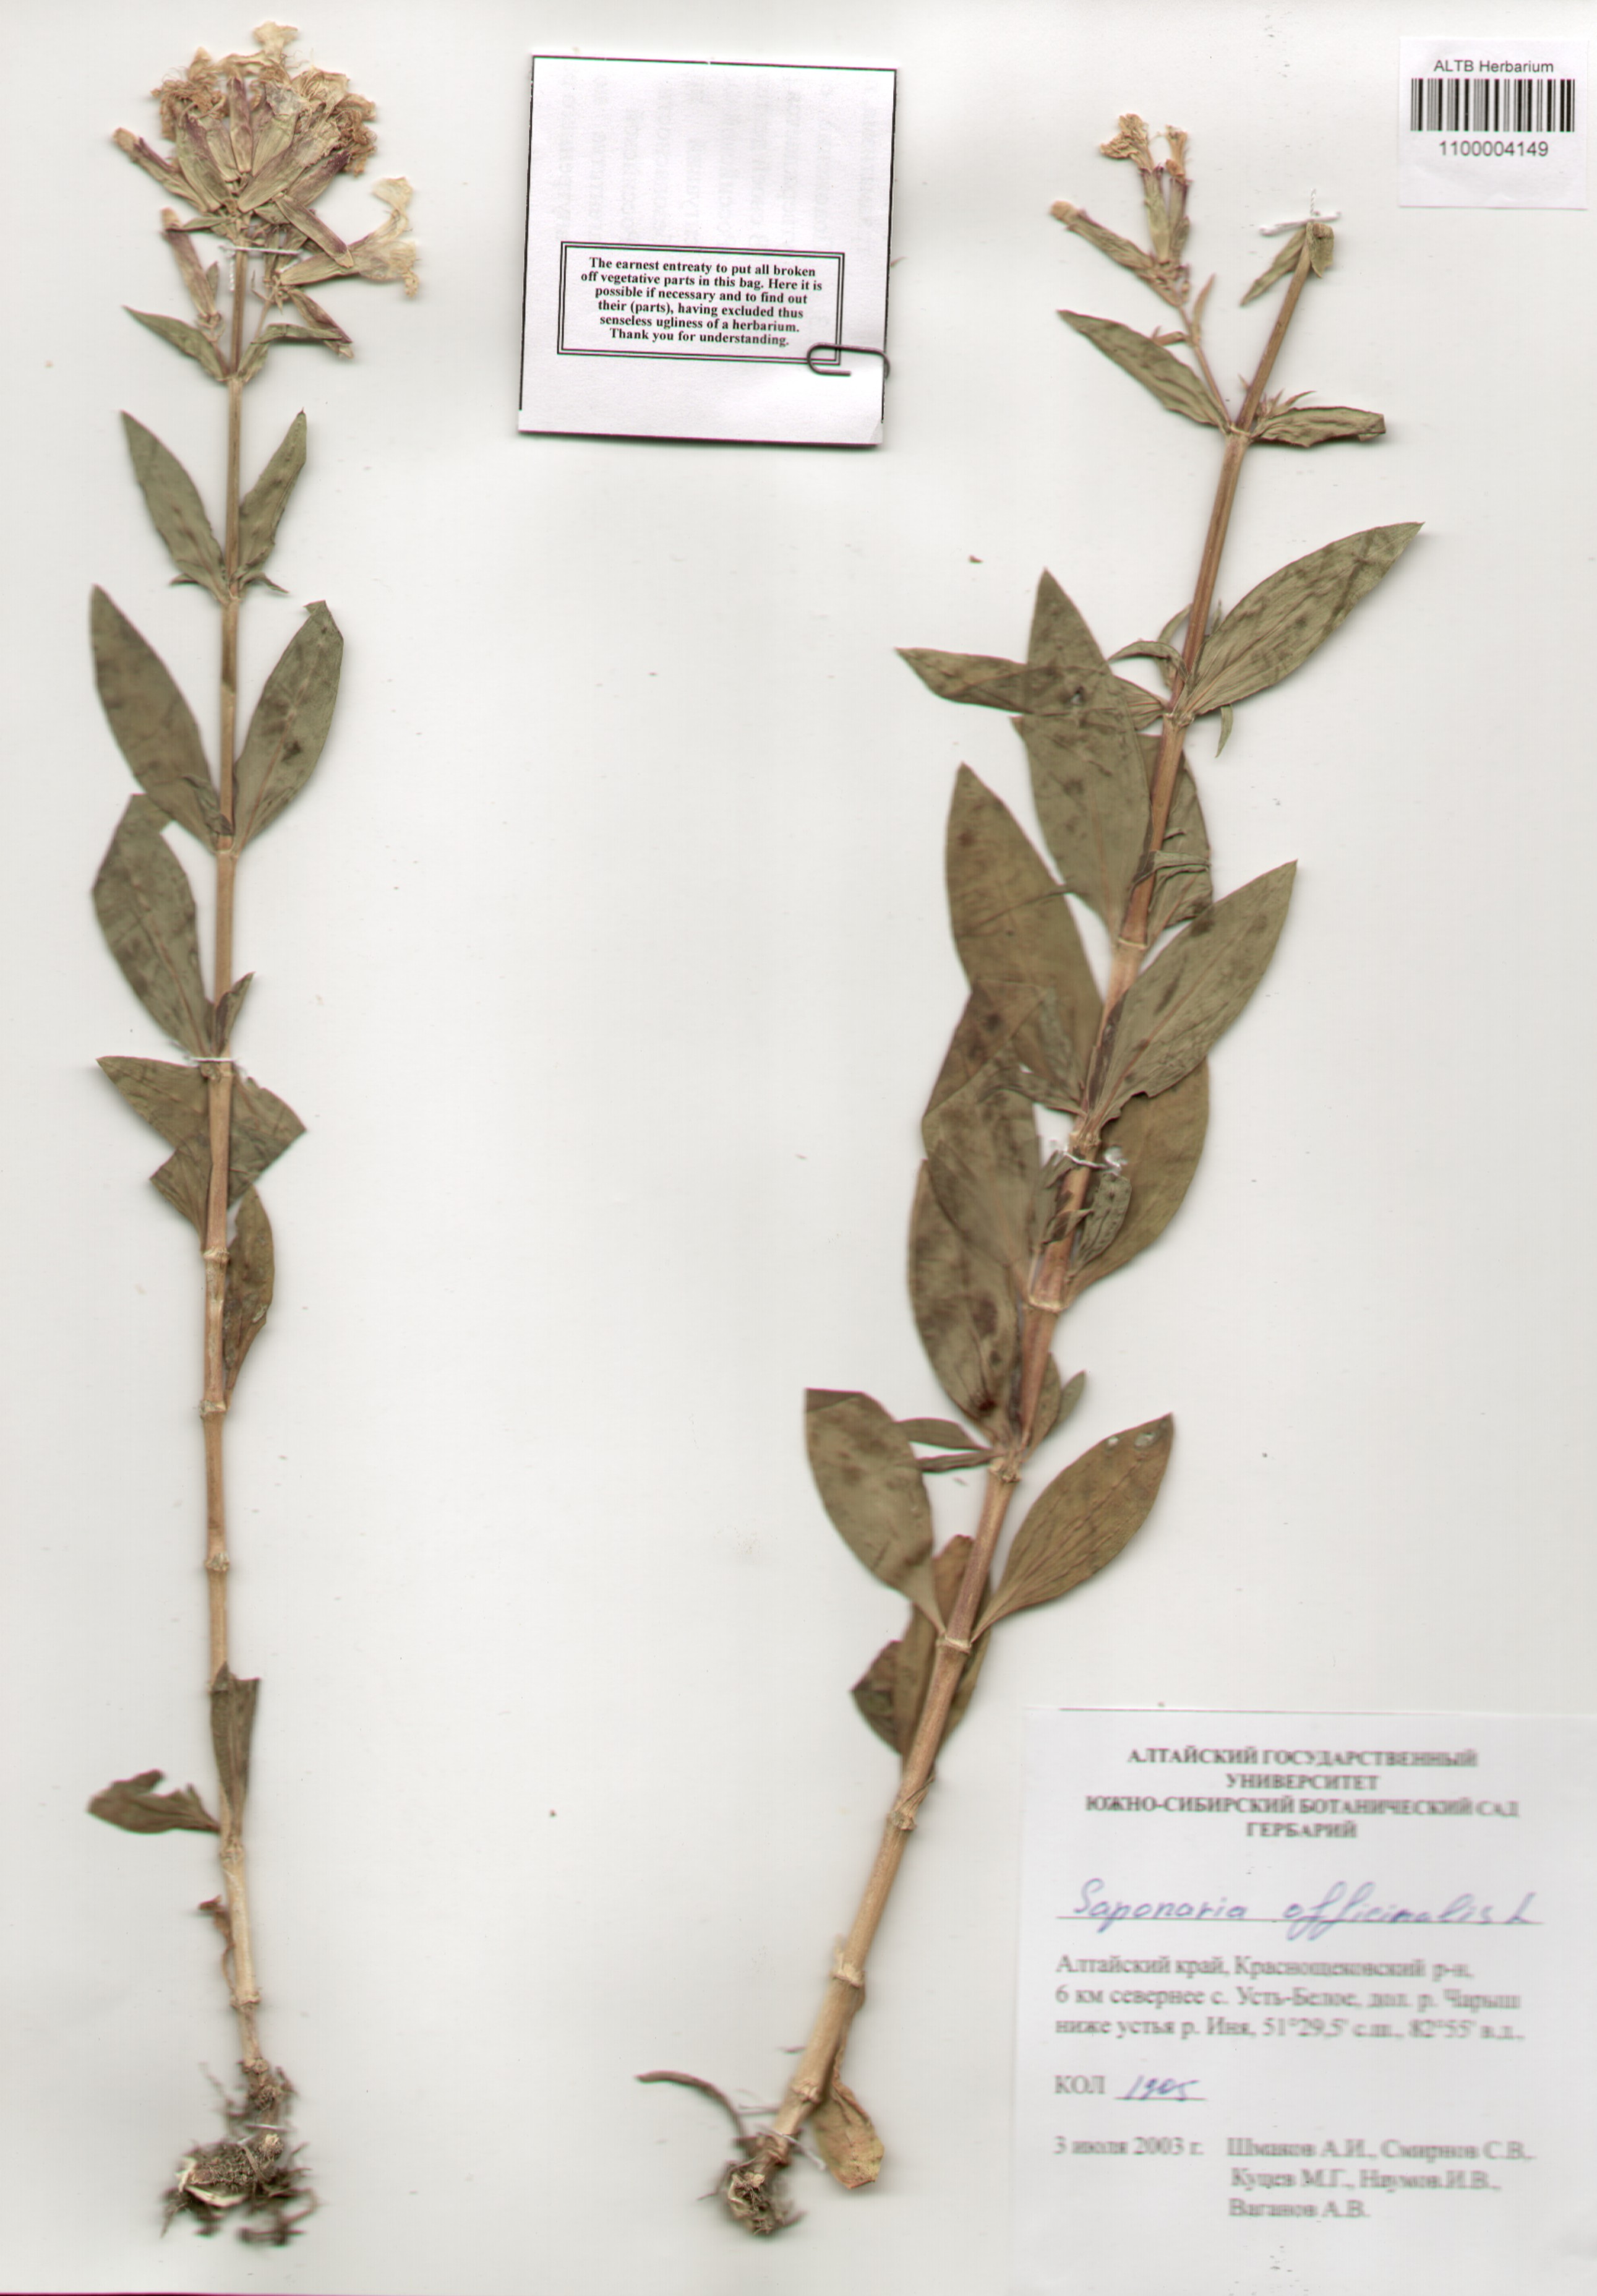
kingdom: Plantae
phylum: Tracheophyta
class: Magnoliopsida
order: Caryophyllales
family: Caryophyllaceae
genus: Saponaria
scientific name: Saponaria officinalis
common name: Soapwort
